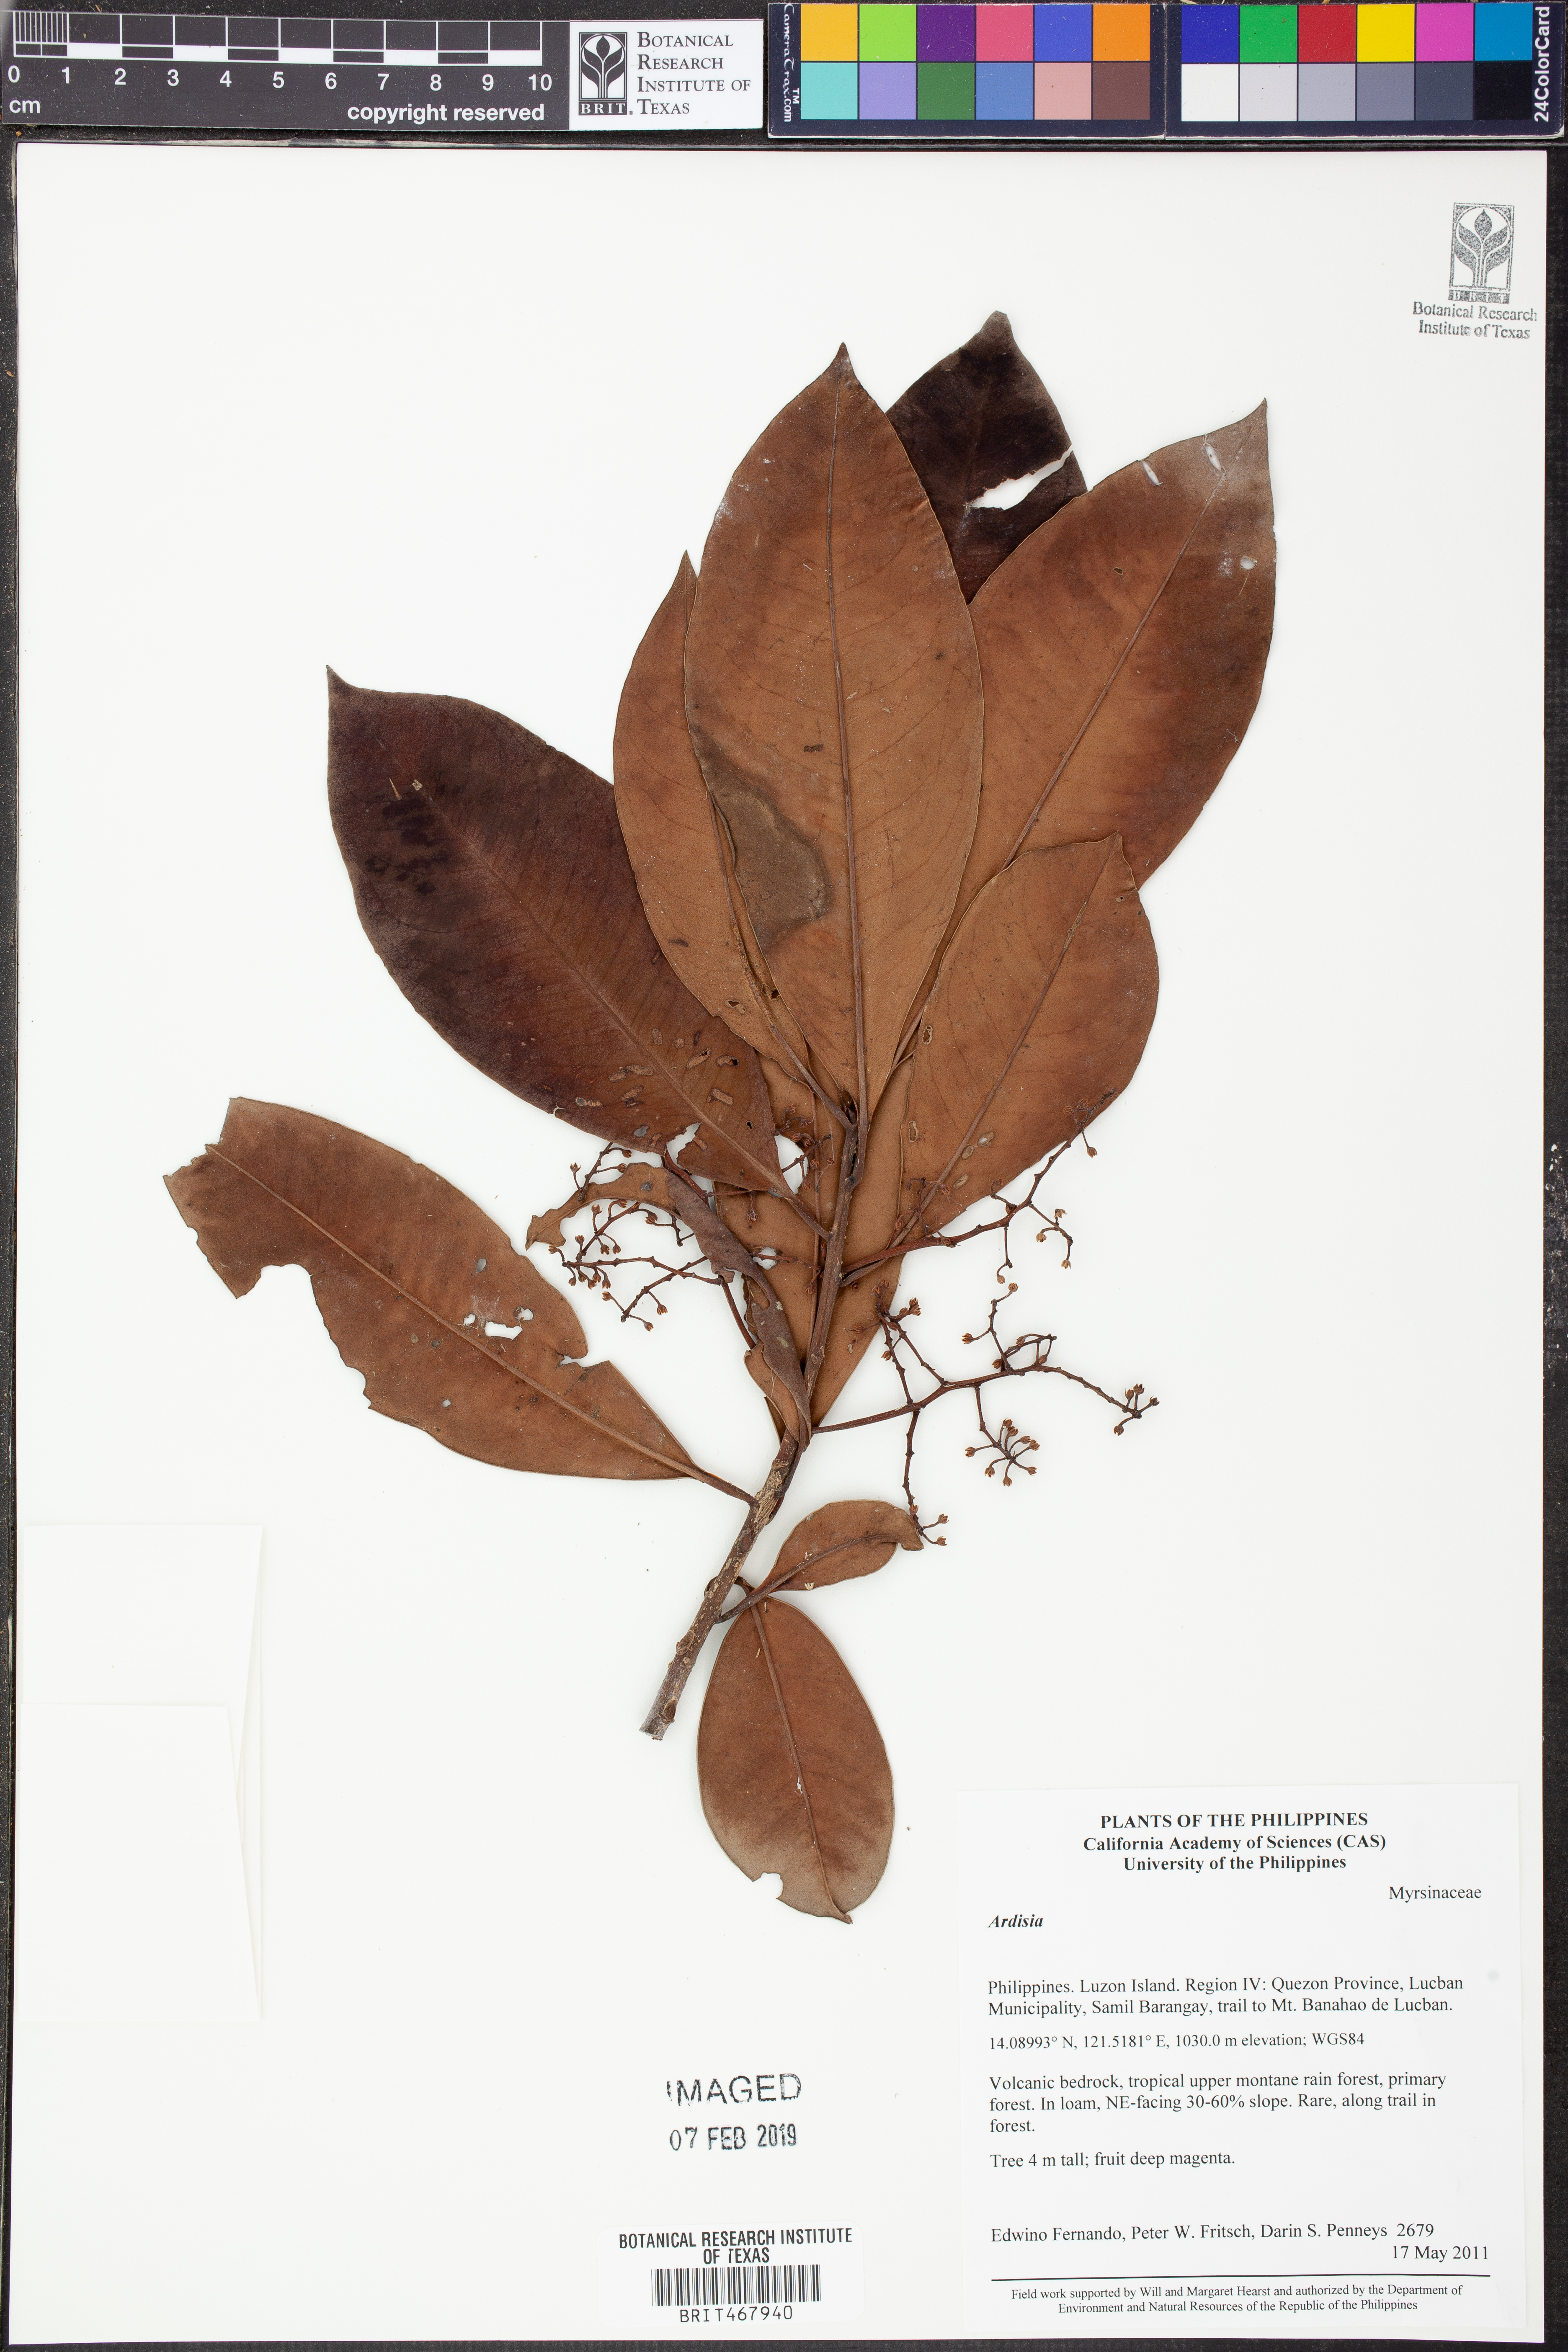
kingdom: Plantae
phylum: Tracheophyta
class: Magnoliopsida
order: Ericales
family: Primulaceae
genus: Ardisia
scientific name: Ardisia
